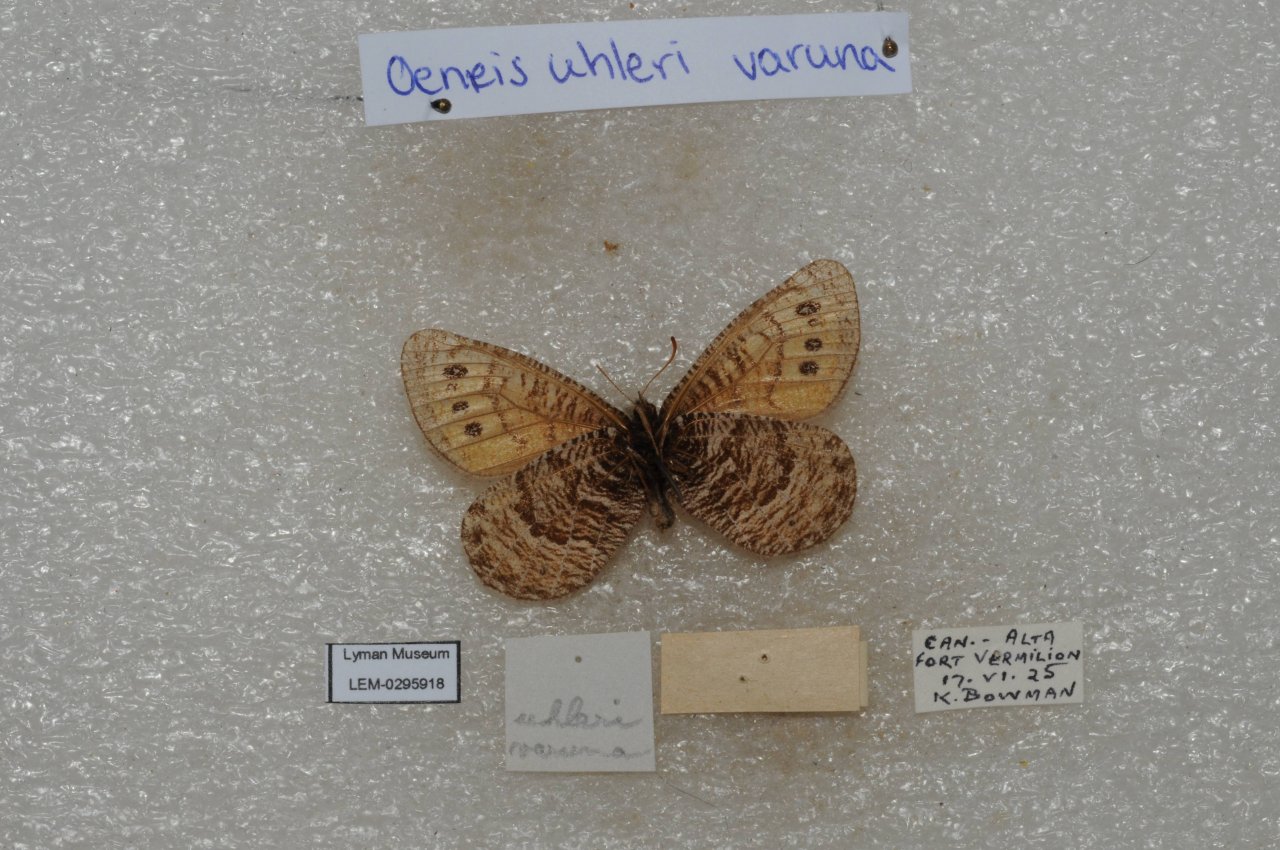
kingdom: Animalia
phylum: Arthropoda
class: Insecta
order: Lepidoptera
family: Nymphalidae
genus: Oeneis
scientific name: Oeneis uhleri
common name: Uhler's Arctic
